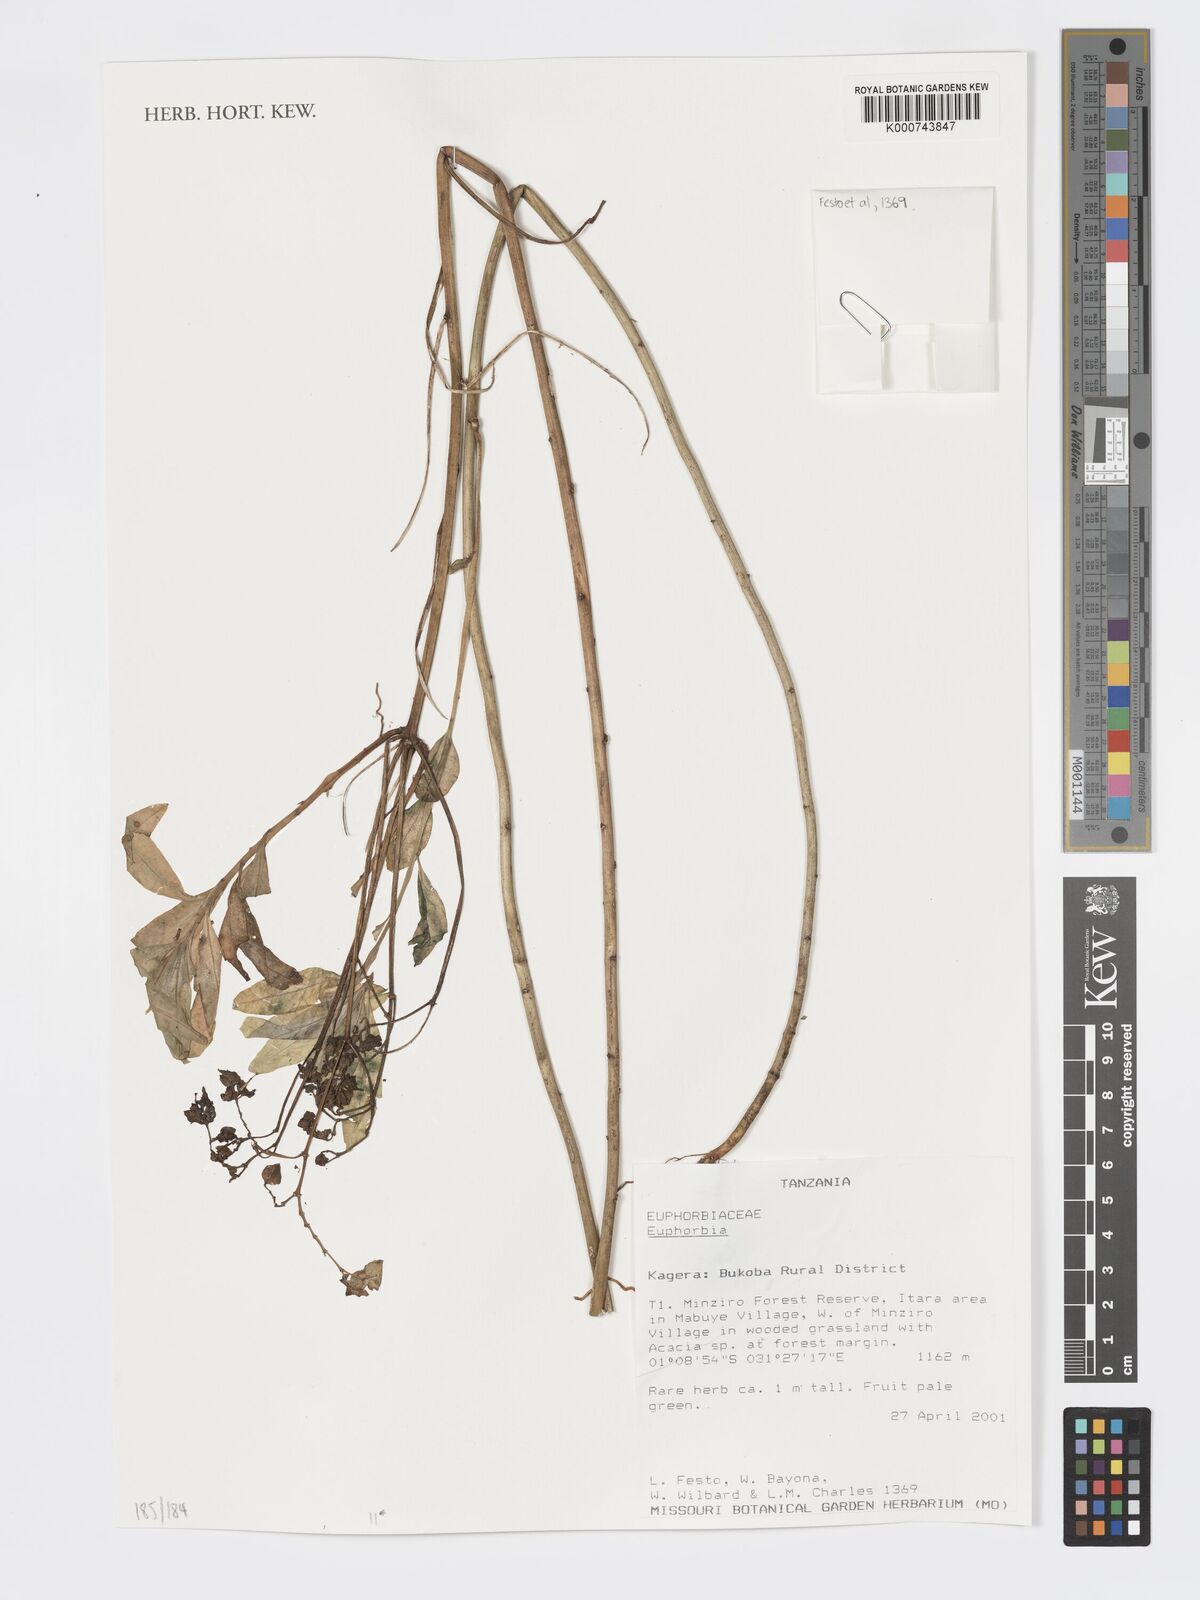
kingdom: Plantae
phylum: Tracheophyta
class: Magnoliopsida
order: Malpighiales
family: Euphorbiaceae
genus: Euphorbia
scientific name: Euphorbia
